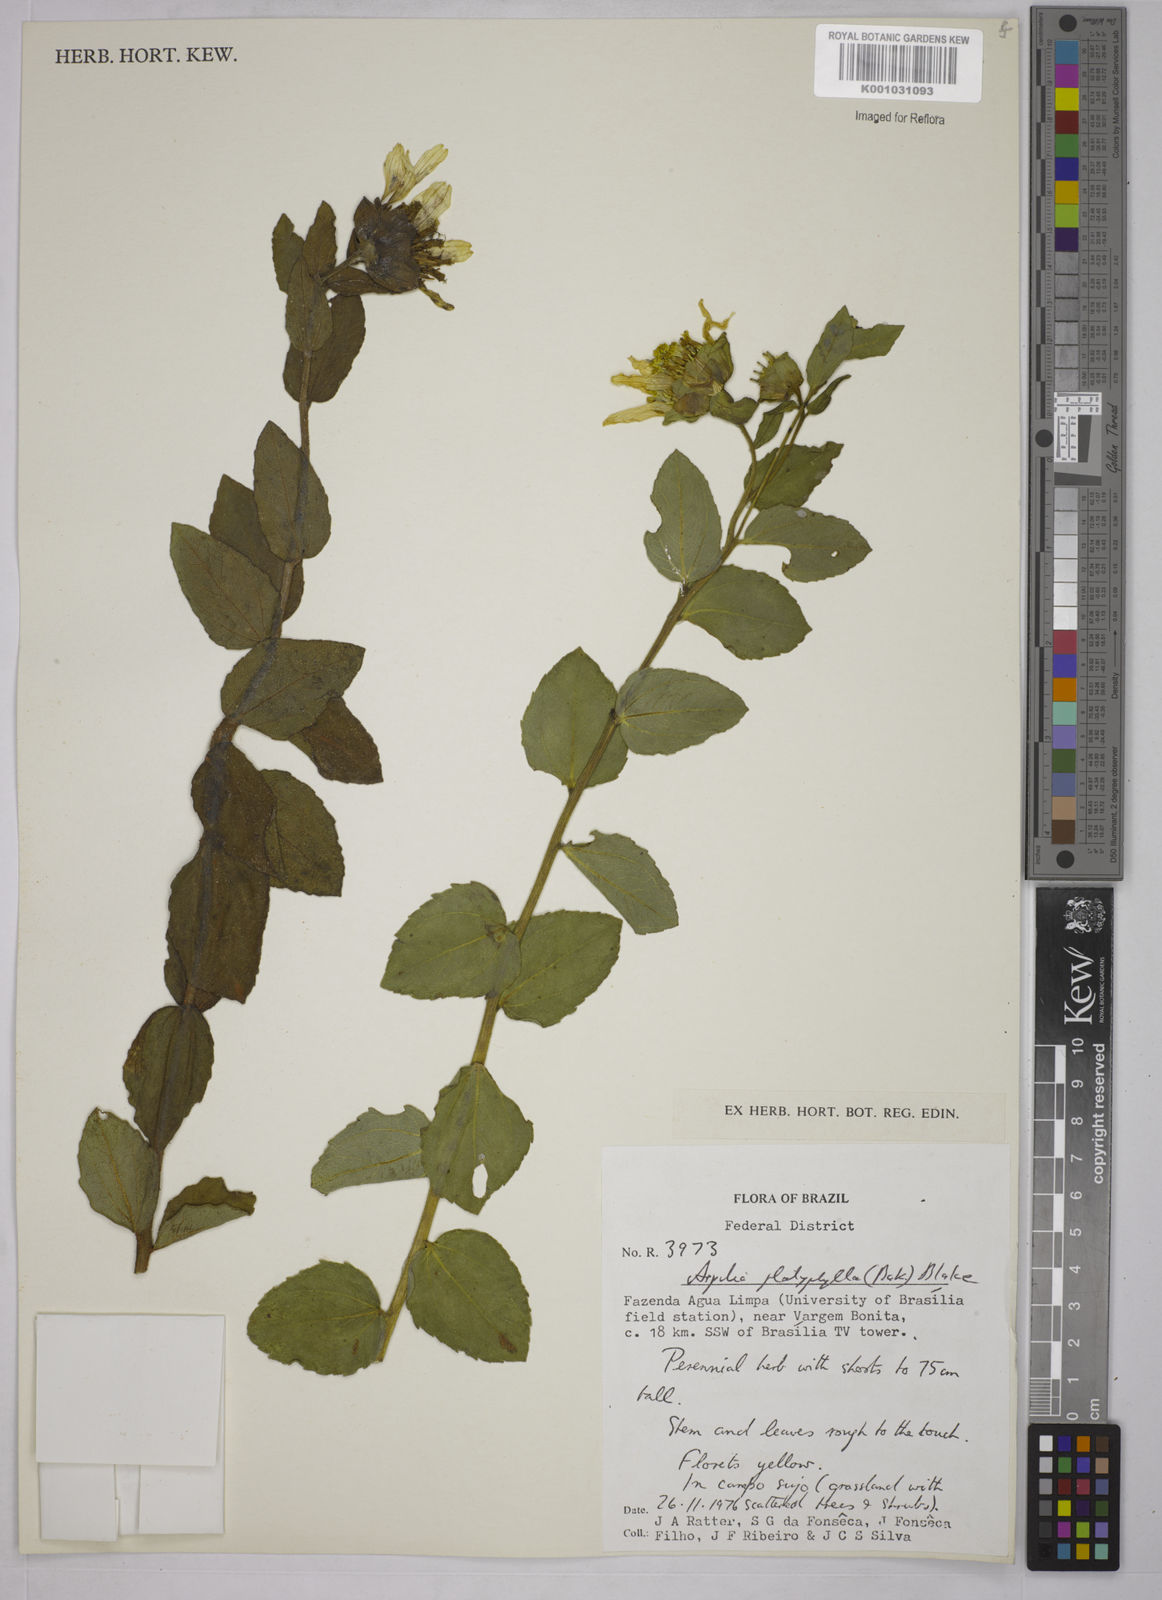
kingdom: Plantae
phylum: Tracheophyta
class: Magnoliopsida
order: Asterales
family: Asteraceae
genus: Aspilia
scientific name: Aspilia
